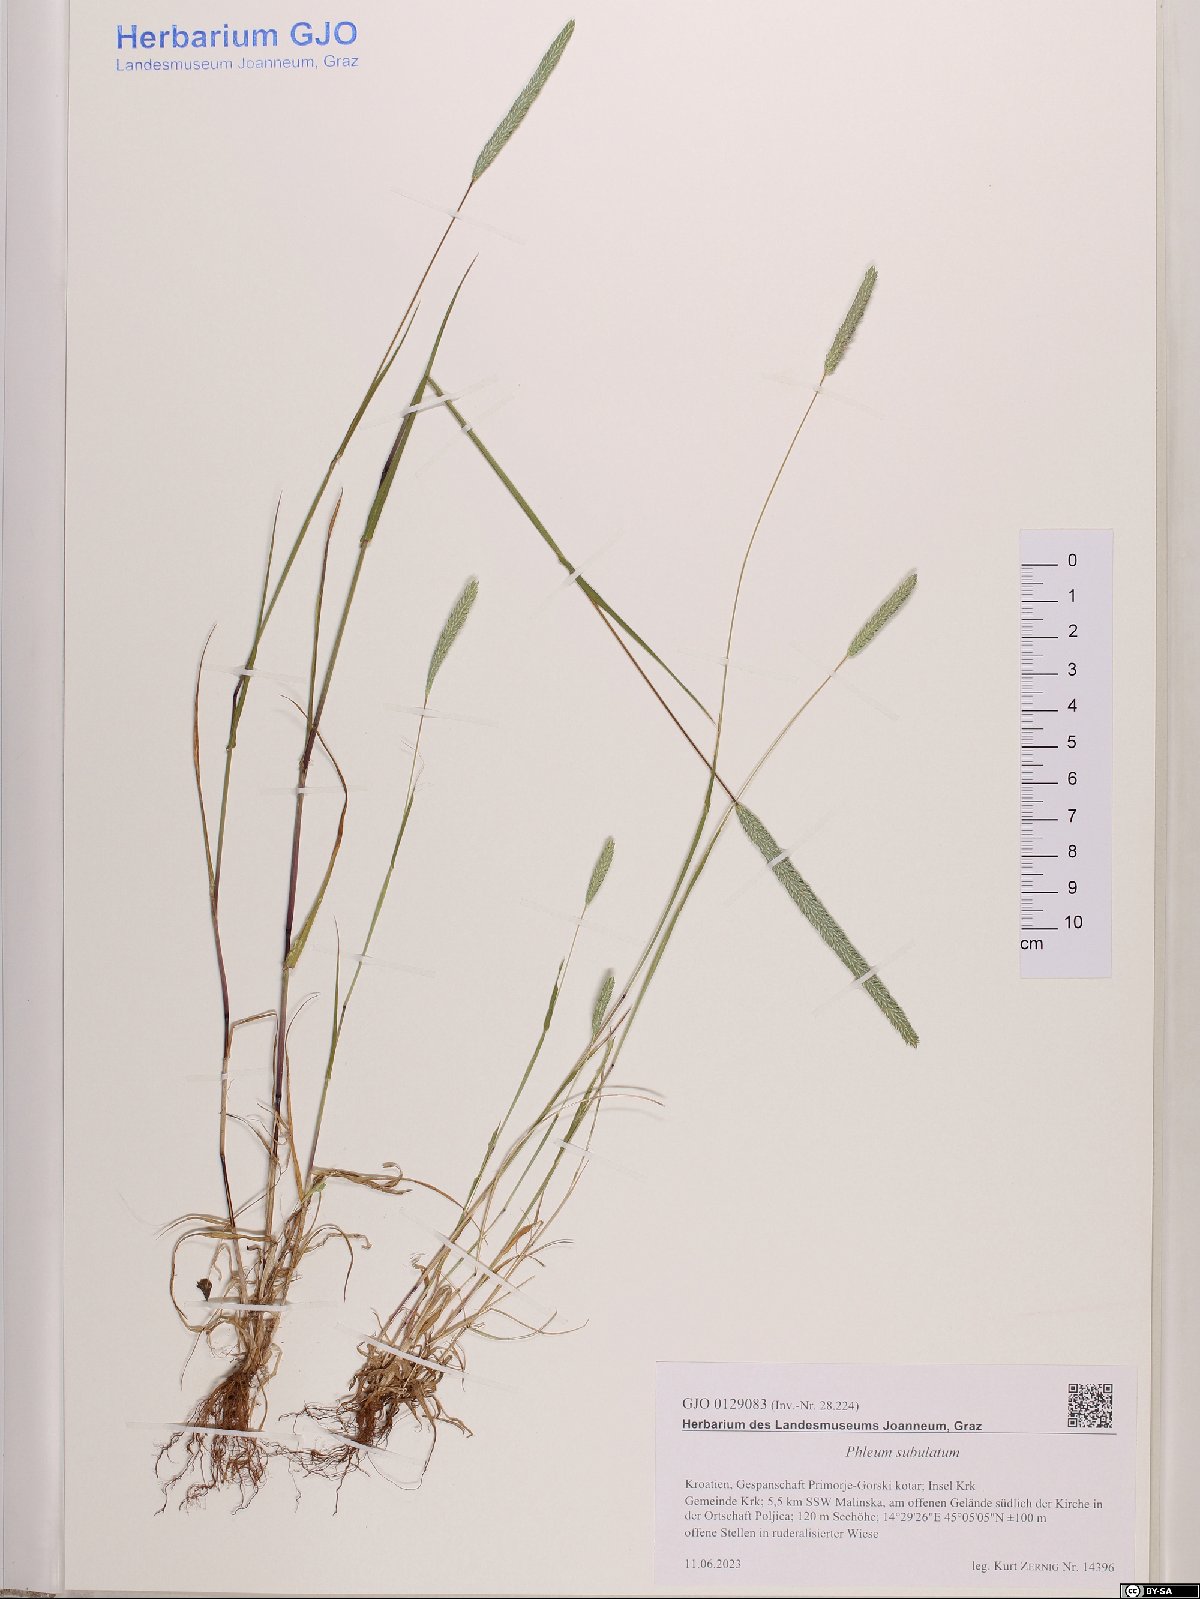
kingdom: Plantae
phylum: Tracheophyta
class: Liliopsida
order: Poales
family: Poaceae
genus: Phleum
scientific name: Phleum subulatum
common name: Italian timothy
